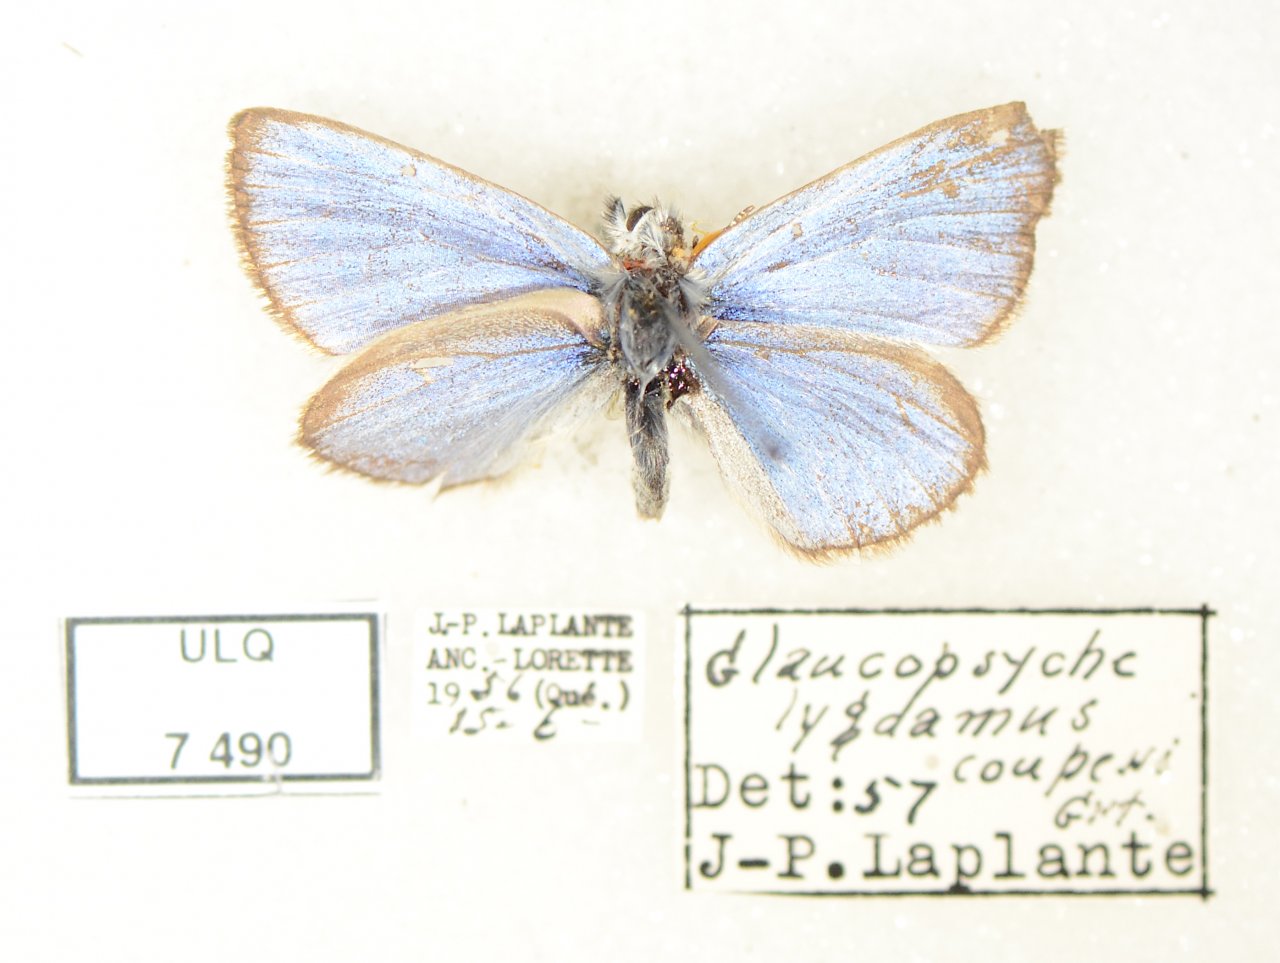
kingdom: Animalia
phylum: Arthropoda
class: Insecta
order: Lepidoptera
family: Lycaenidae
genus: Glaucopsyche
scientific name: Glaucopsyche lygdamus
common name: Silvery Blue
